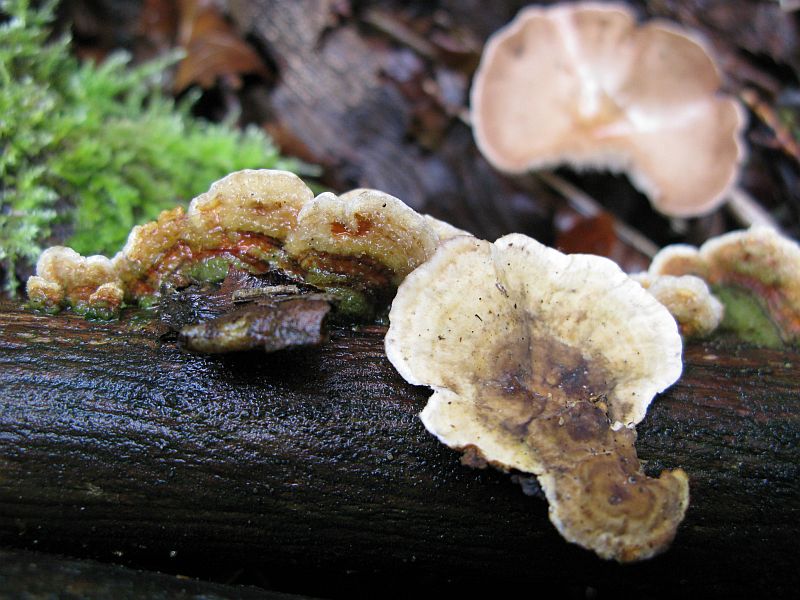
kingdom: Fungi
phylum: Basidiomycota
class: Agaricomycetes
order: Russulales
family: Stereaceae
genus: Stereum
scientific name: Stereum hirsutum
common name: håret lædersvamp
